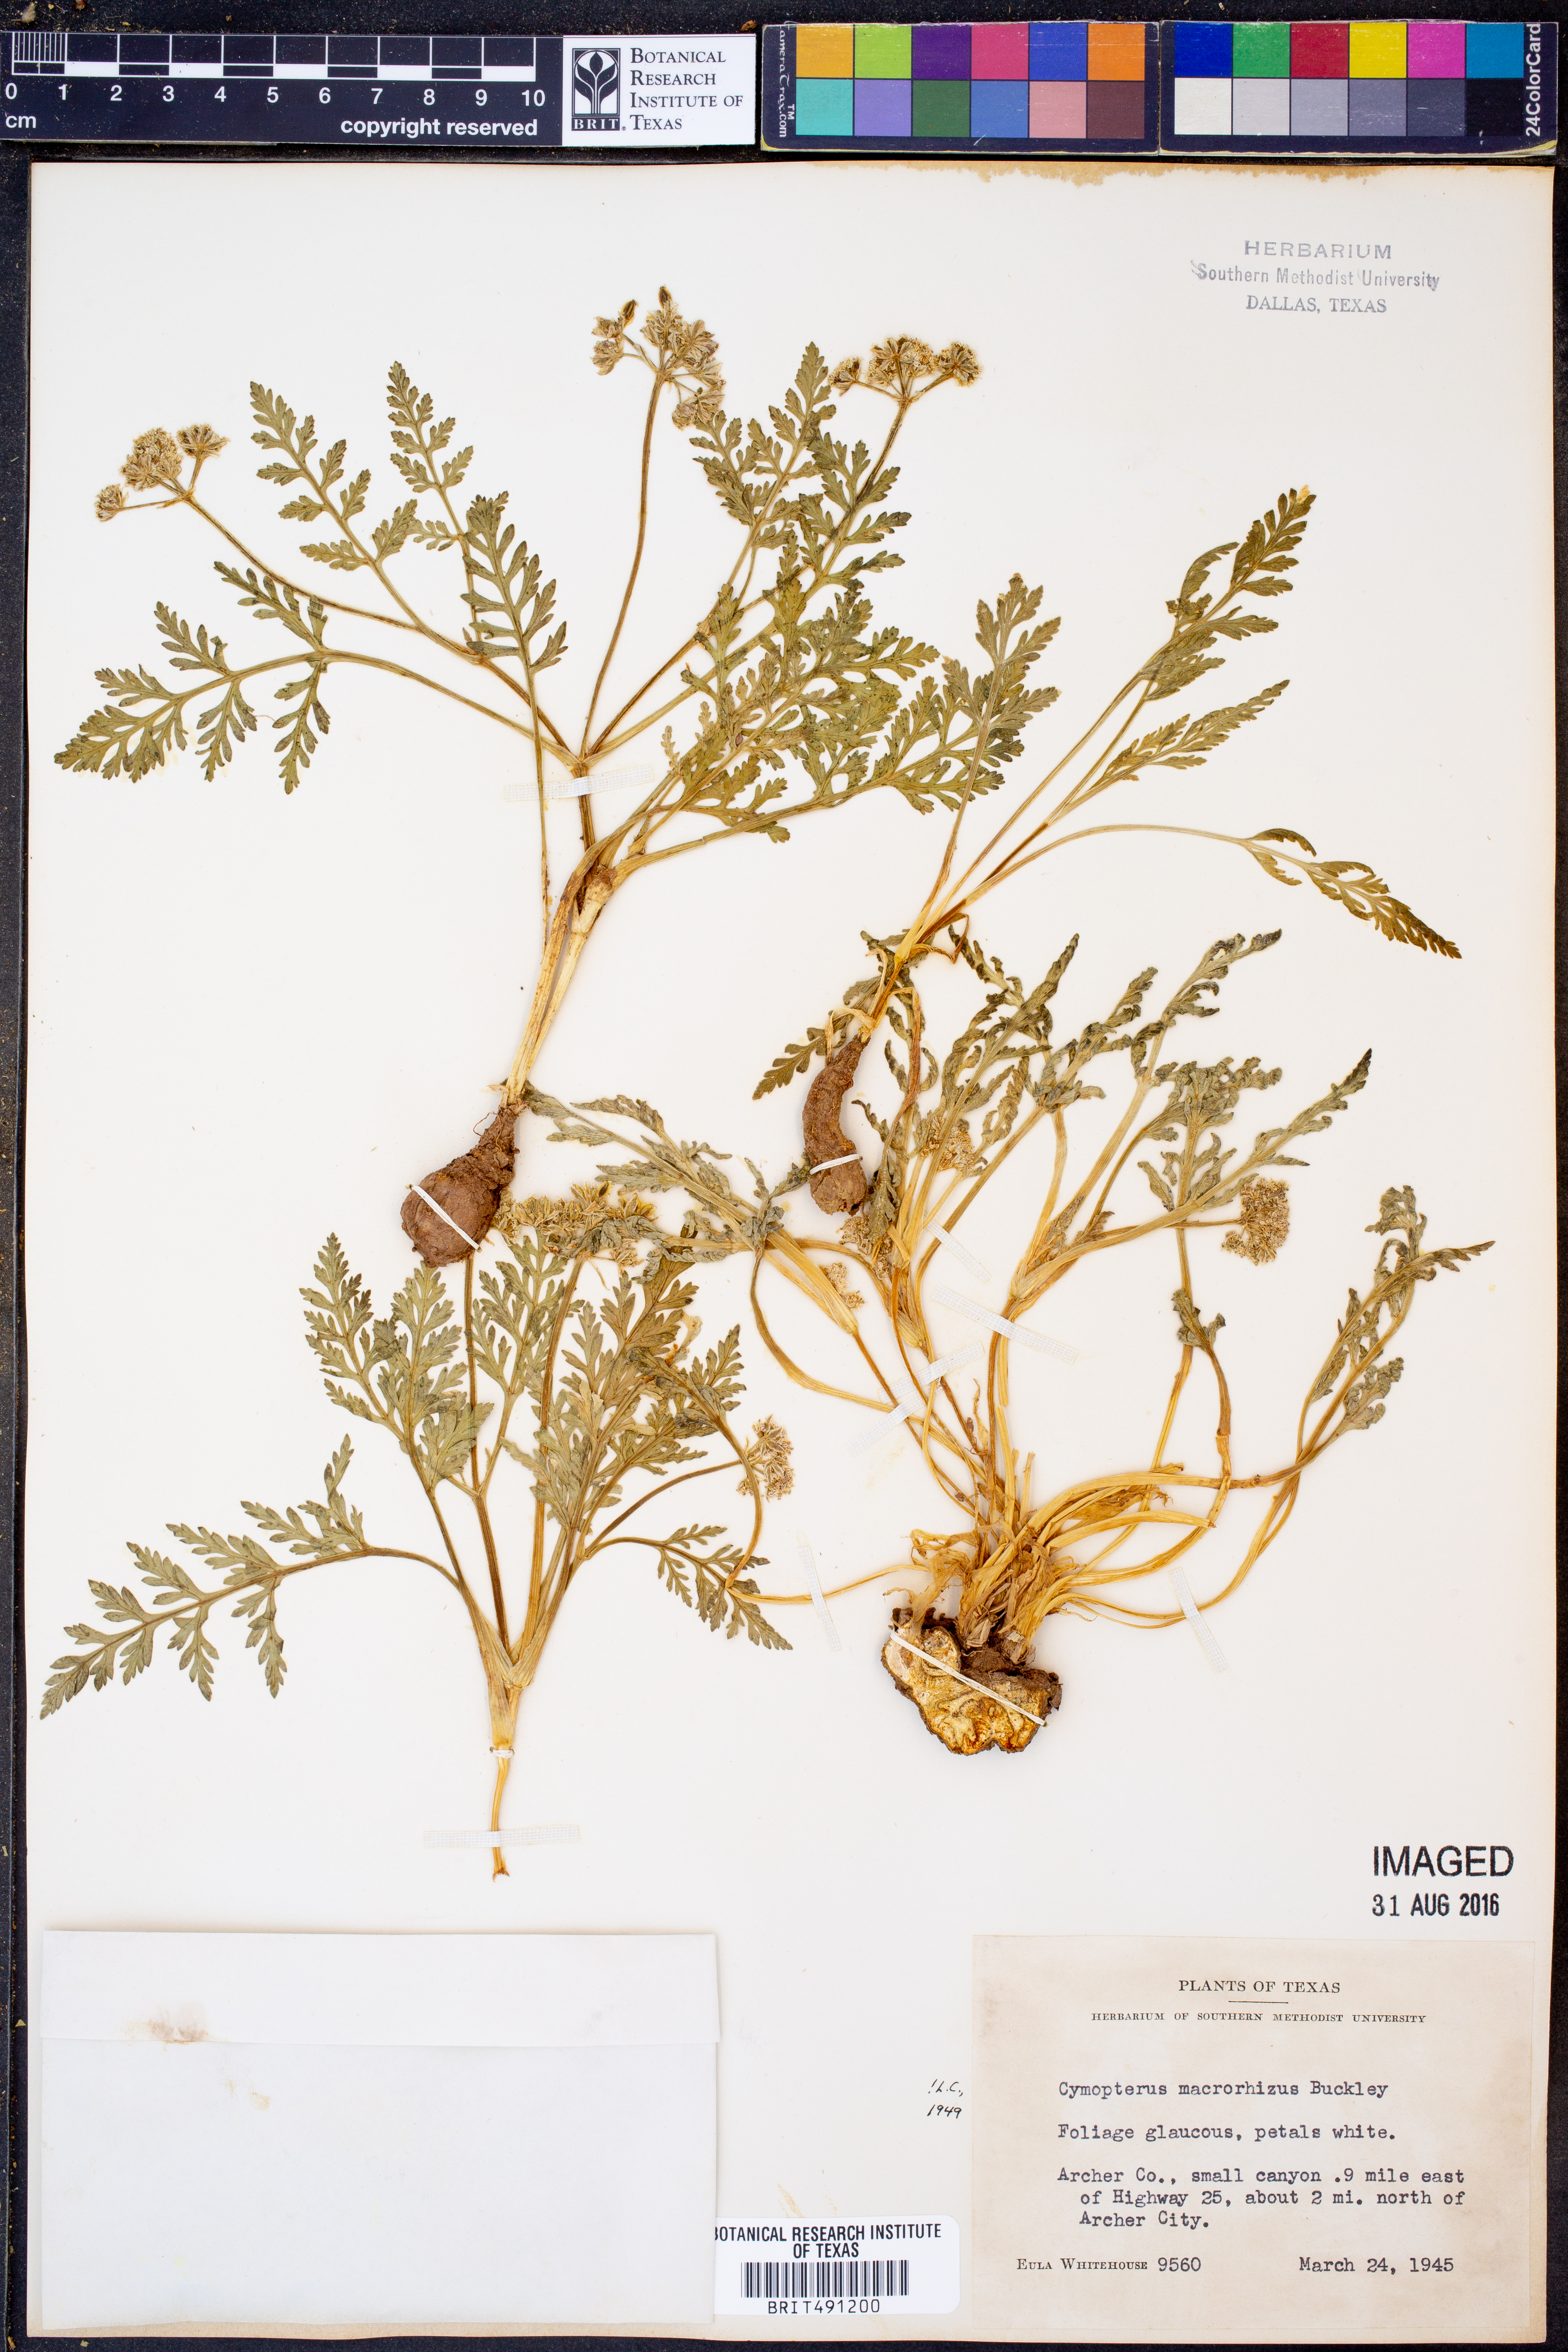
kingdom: Plantae
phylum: Tracheophyta
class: Magnoliopsida
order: Apiales
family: Apiaceae
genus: Vesper
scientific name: Vesper macrorhizus
